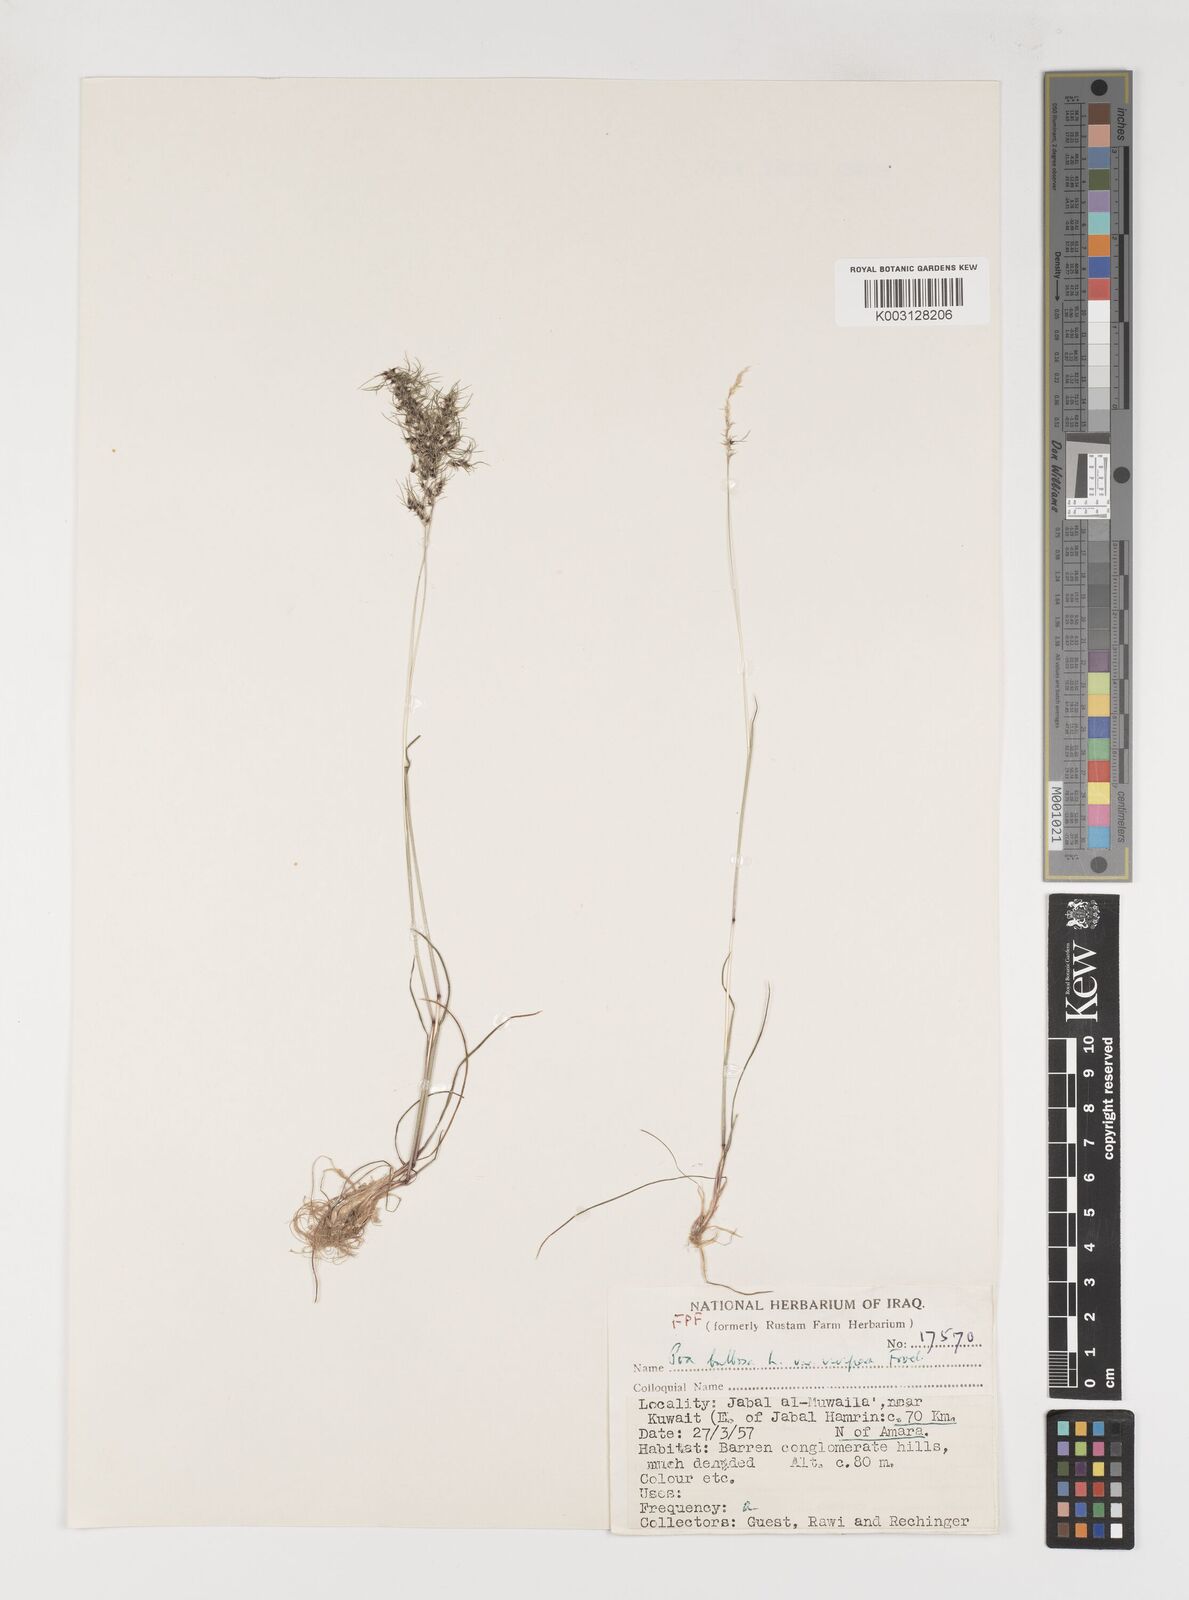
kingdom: Plantae
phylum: Tracheophyta
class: Liliopsida
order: Poales
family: Poaceae
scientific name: Poaceae
